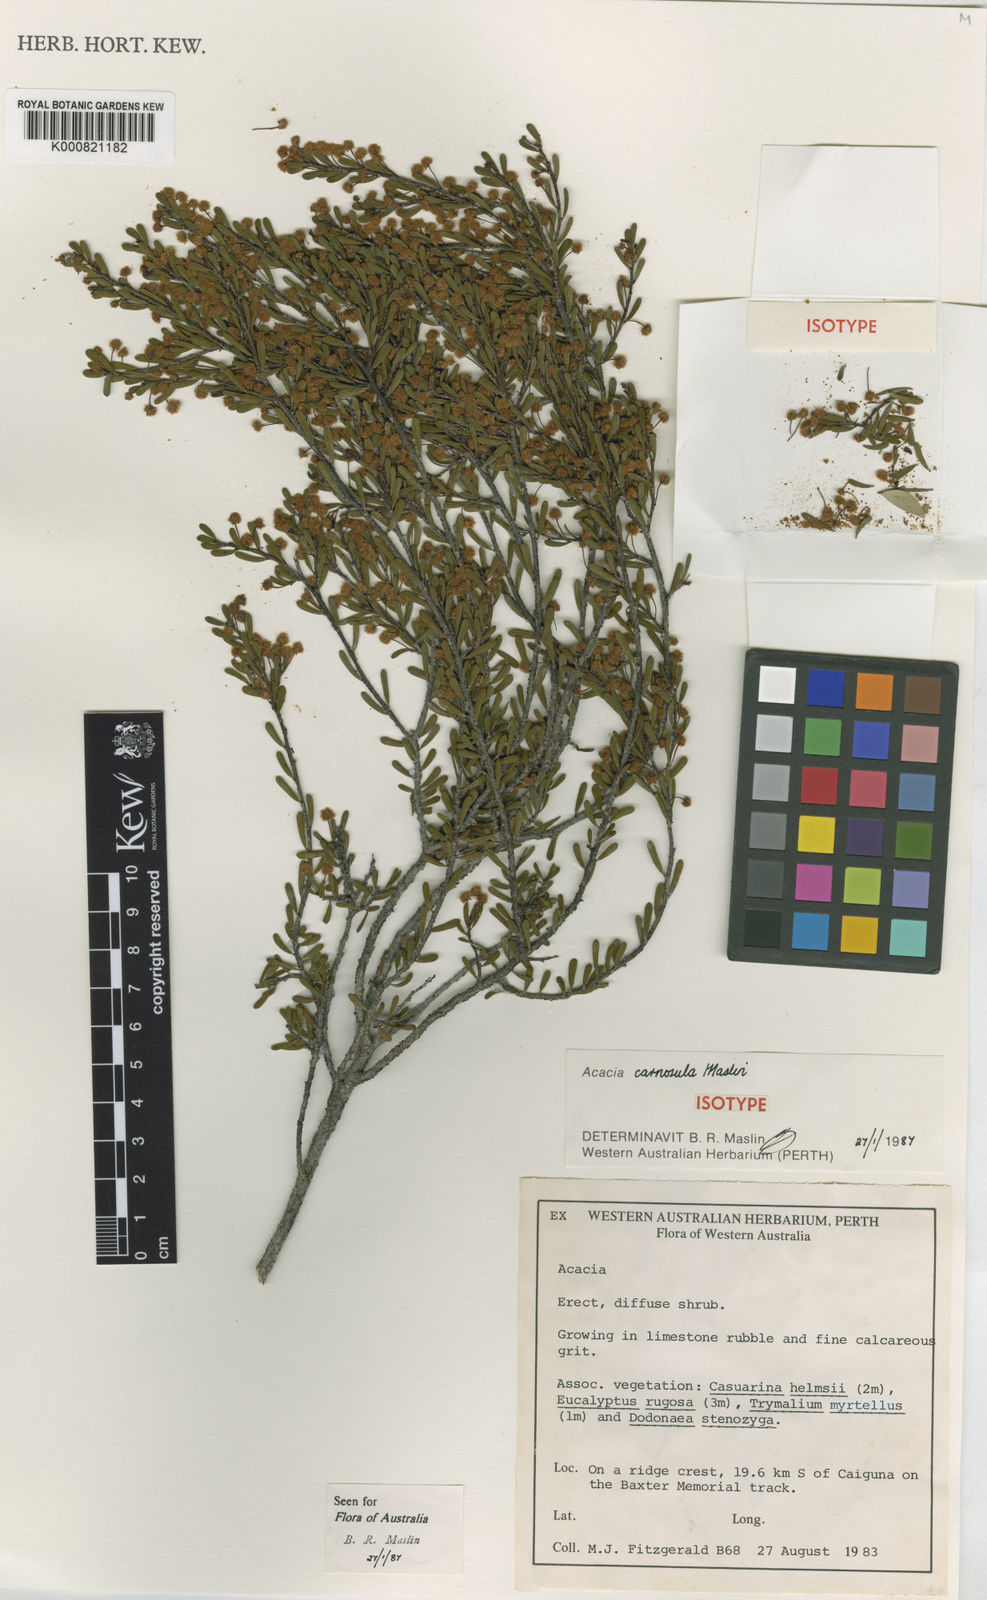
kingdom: Plantae
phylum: Tracheophyta
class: Magnoliopsida
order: Fabales
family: Fabaceae
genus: Acacia
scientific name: Acacia carnosula
